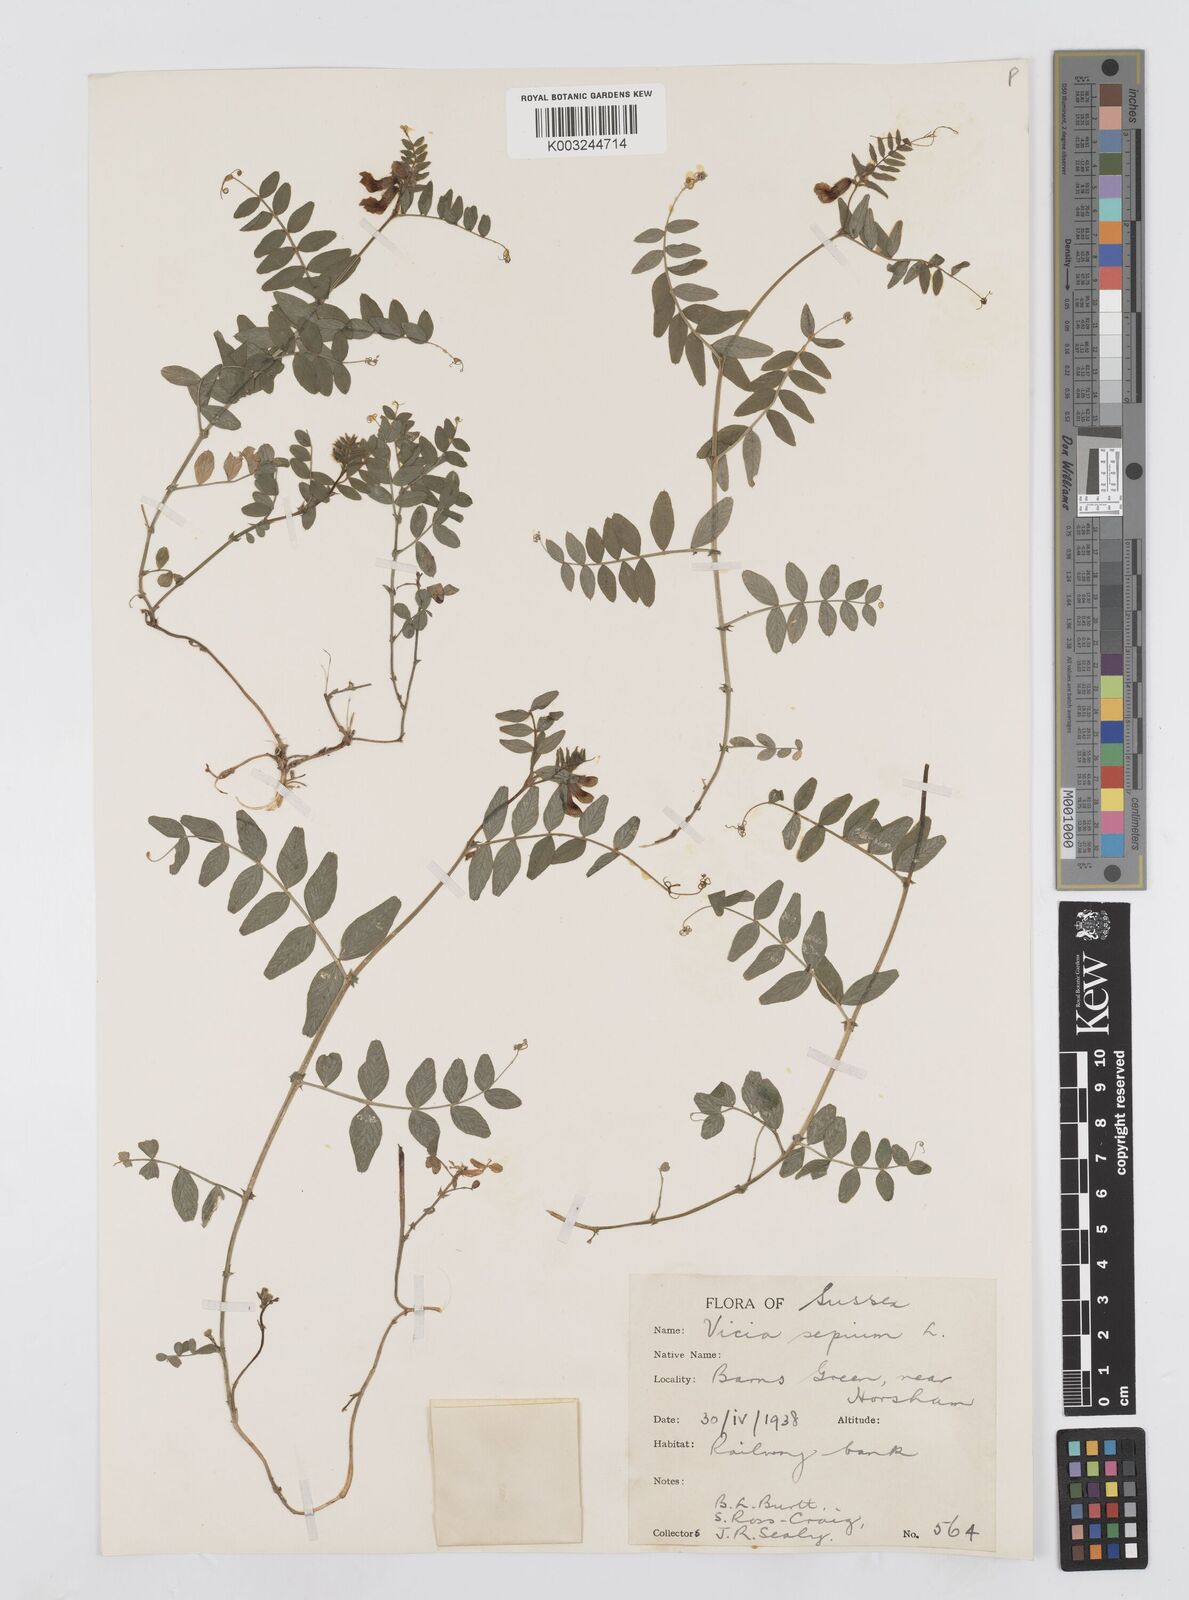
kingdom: Plantae
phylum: Tracheophyta
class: Magnoliopsida
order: Fabales
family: Fabaceae
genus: Vicia
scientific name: Vicia sepium
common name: Bush vetch
